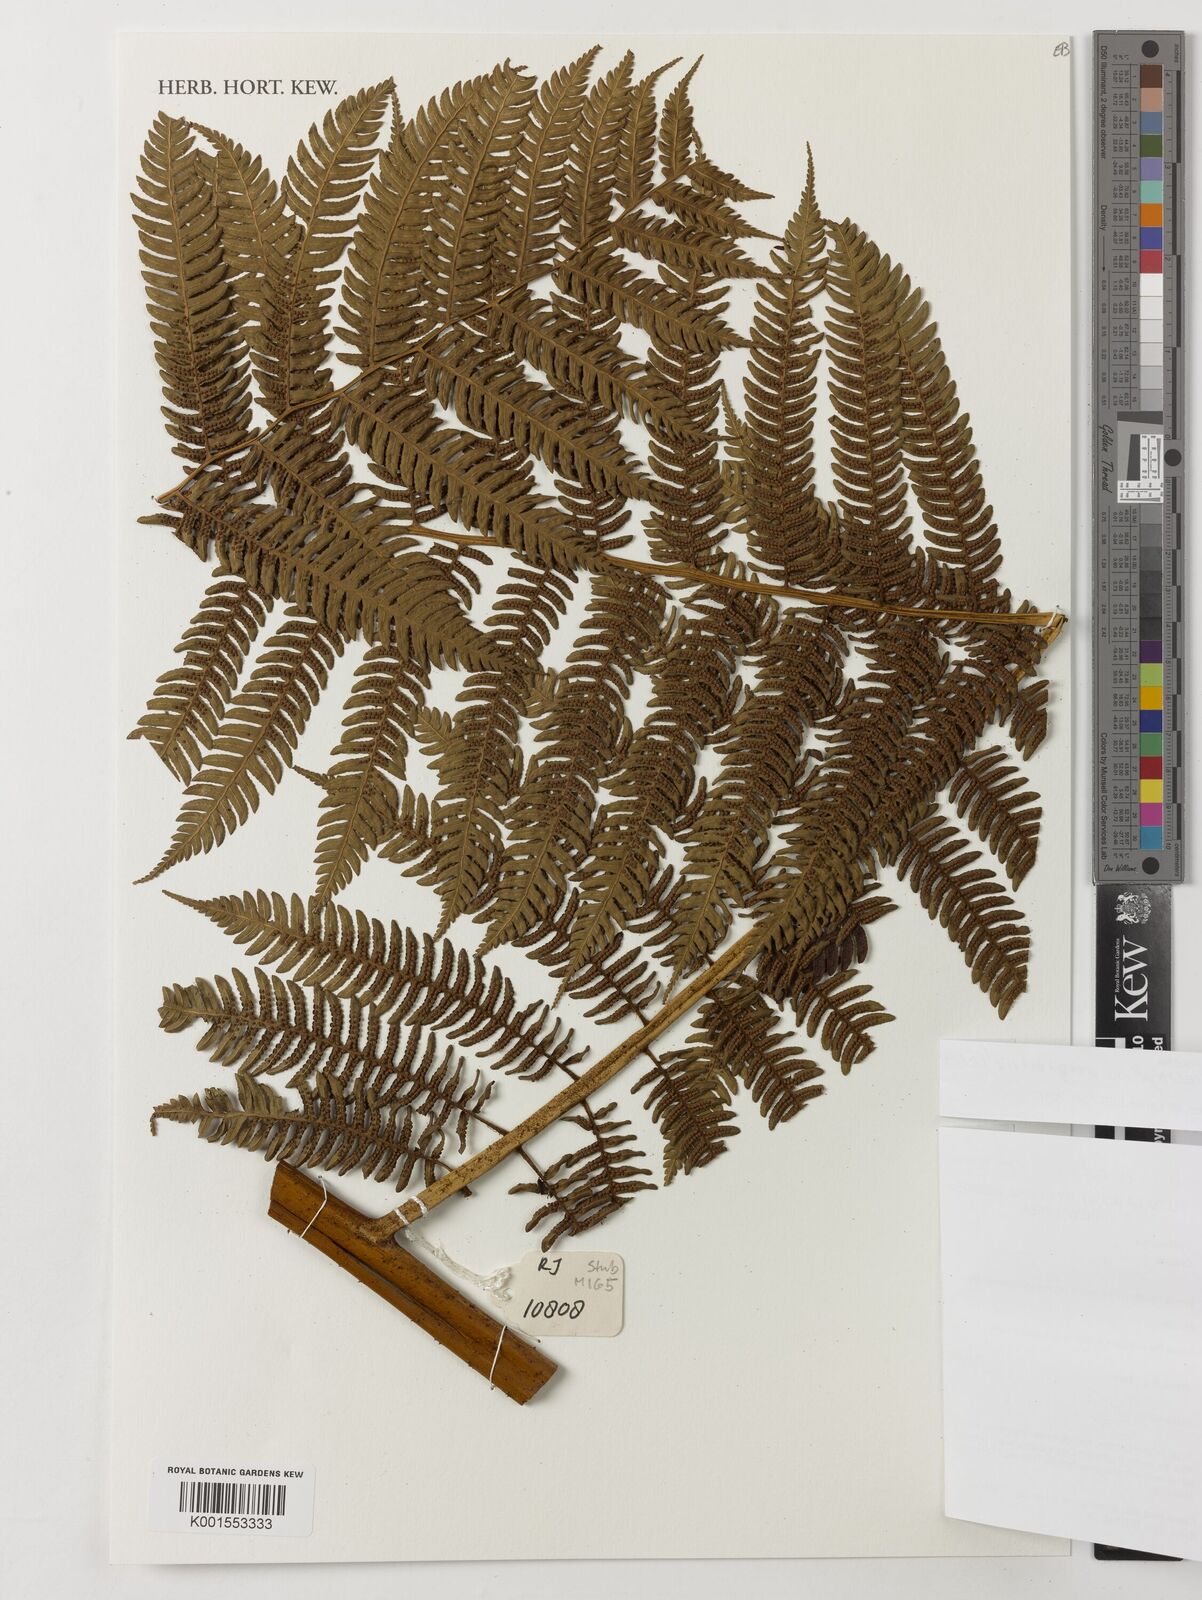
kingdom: Plantae
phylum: Tracheophyta
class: Polypodiopsida
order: Cyatheales
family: Cyatheaceae
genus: Sphaeropteris
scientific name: Sphaeropteris
